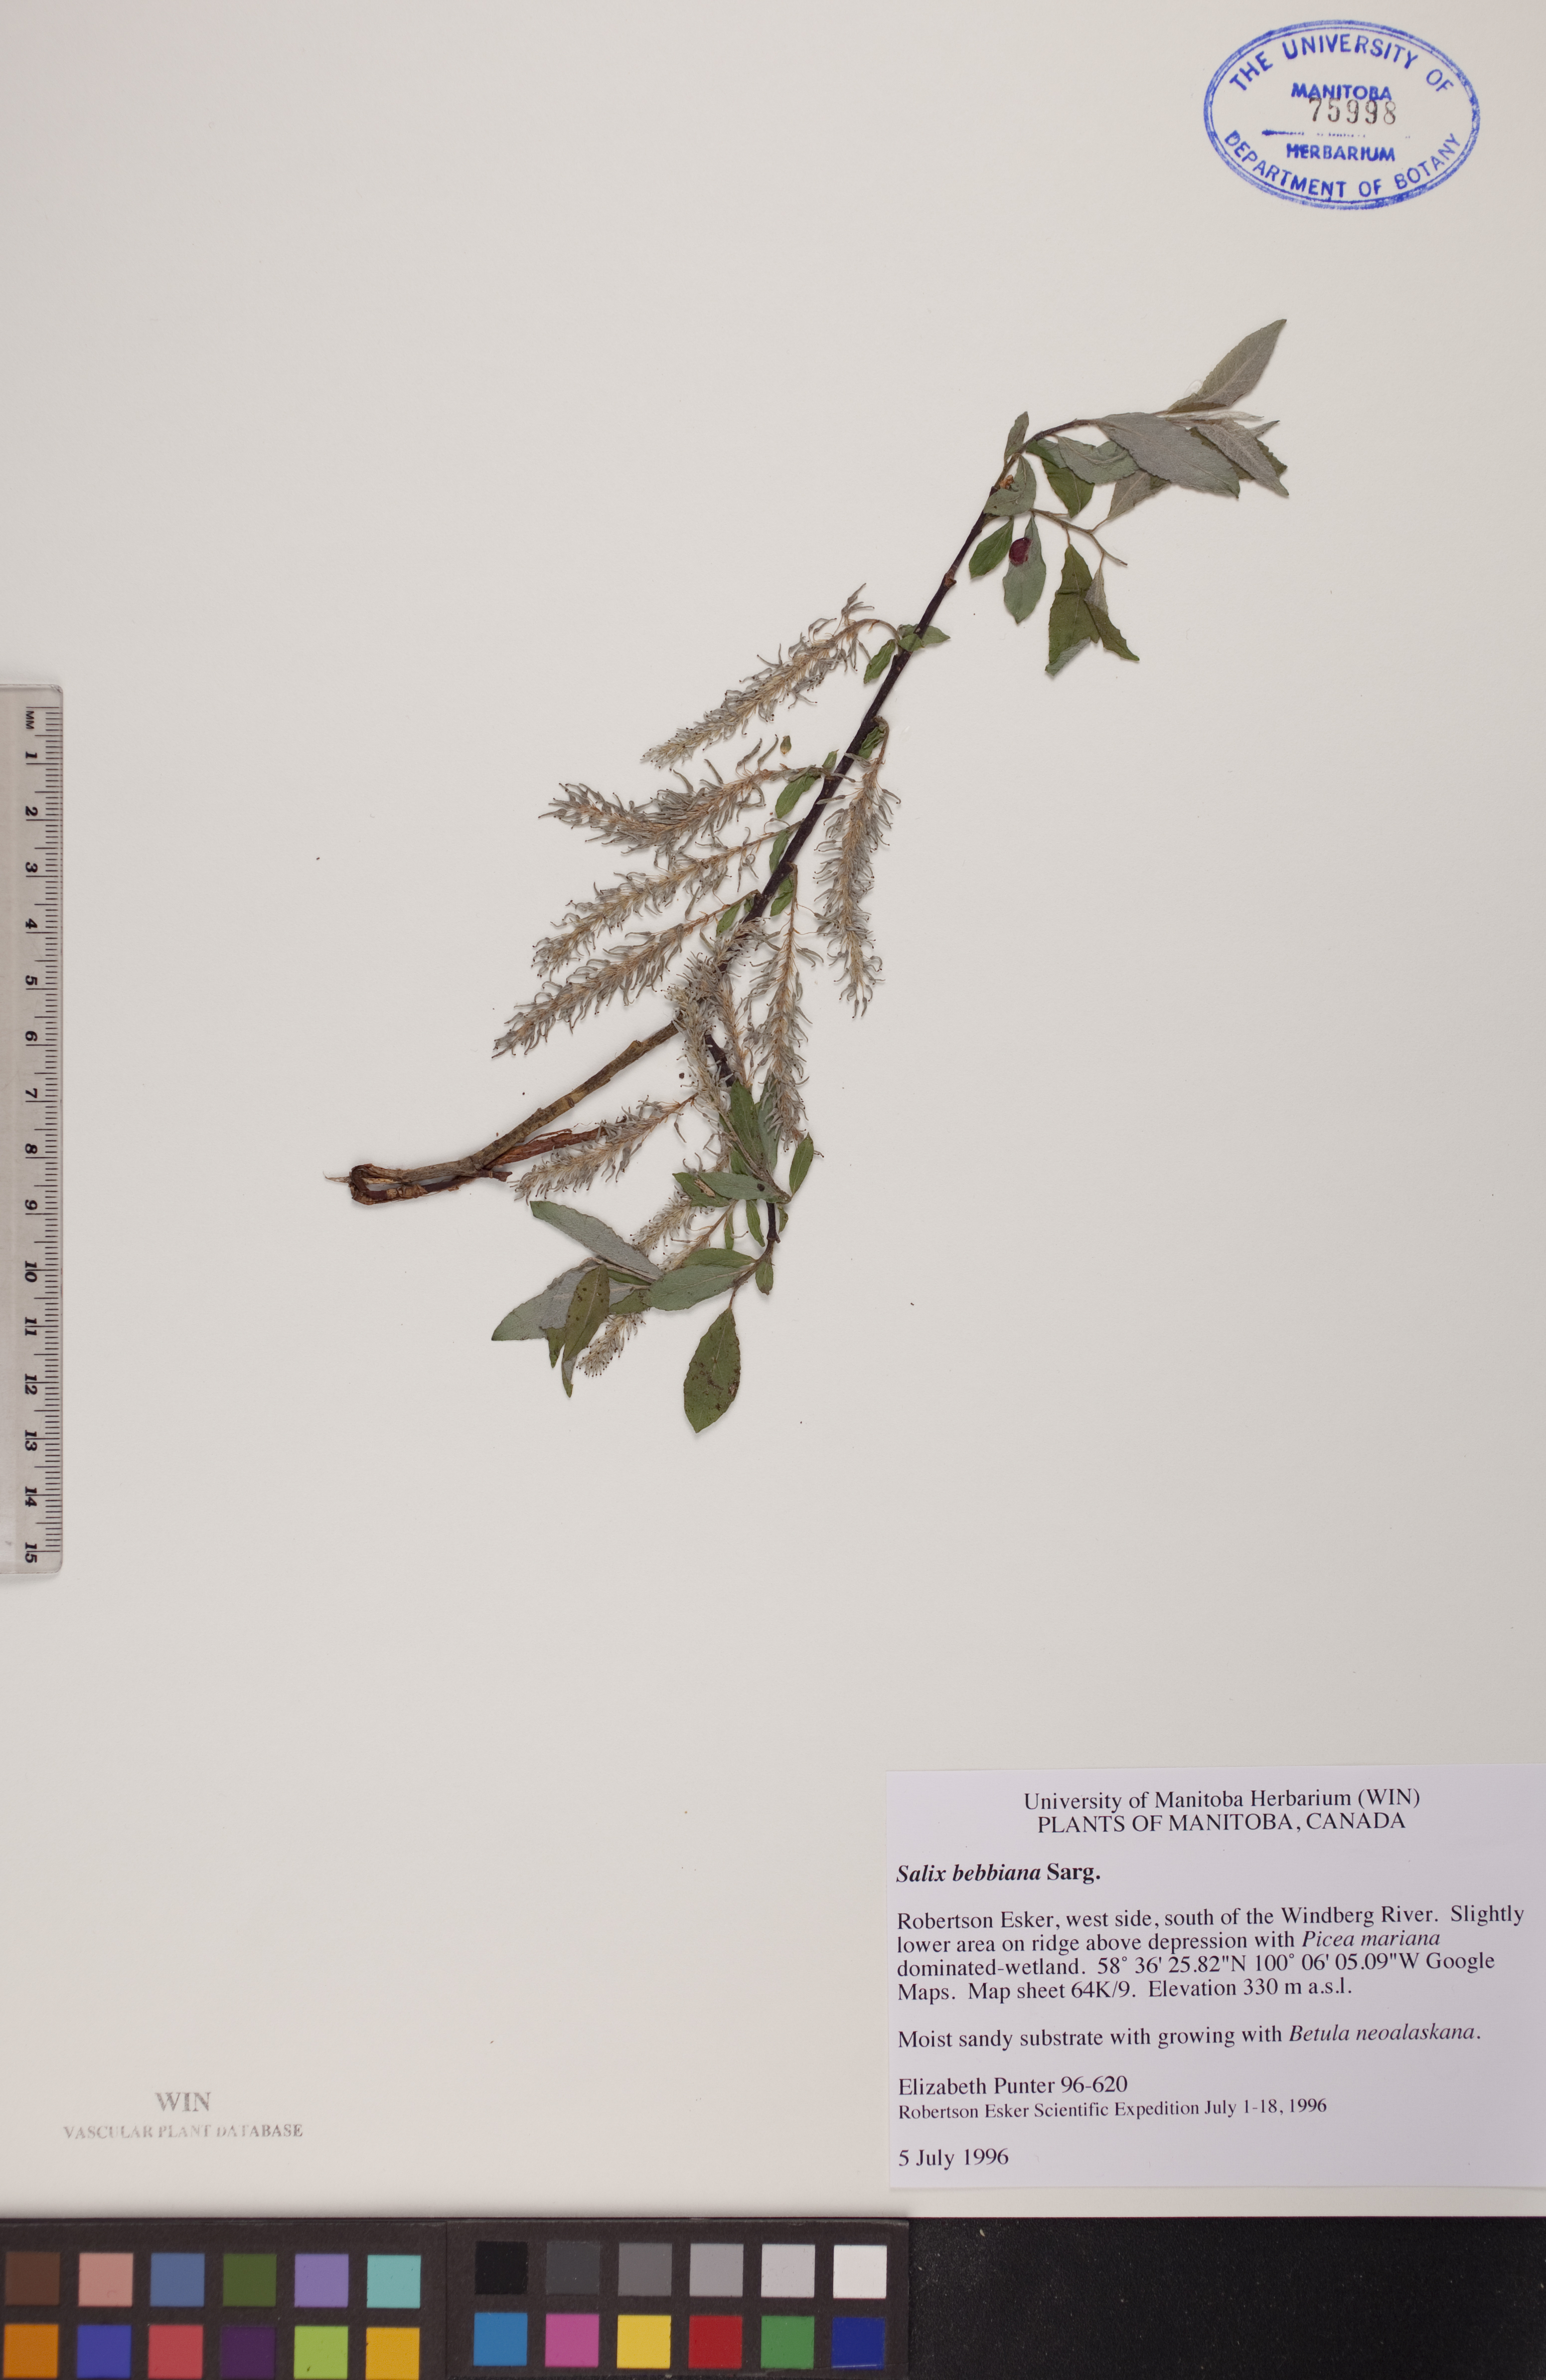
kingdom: Plantae
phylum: Tracheophyta
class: Magnoliopsida
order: Malpighiales
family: Salicaceae
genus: Salix
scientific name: Salix bebbiana
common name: Bebb's willow
